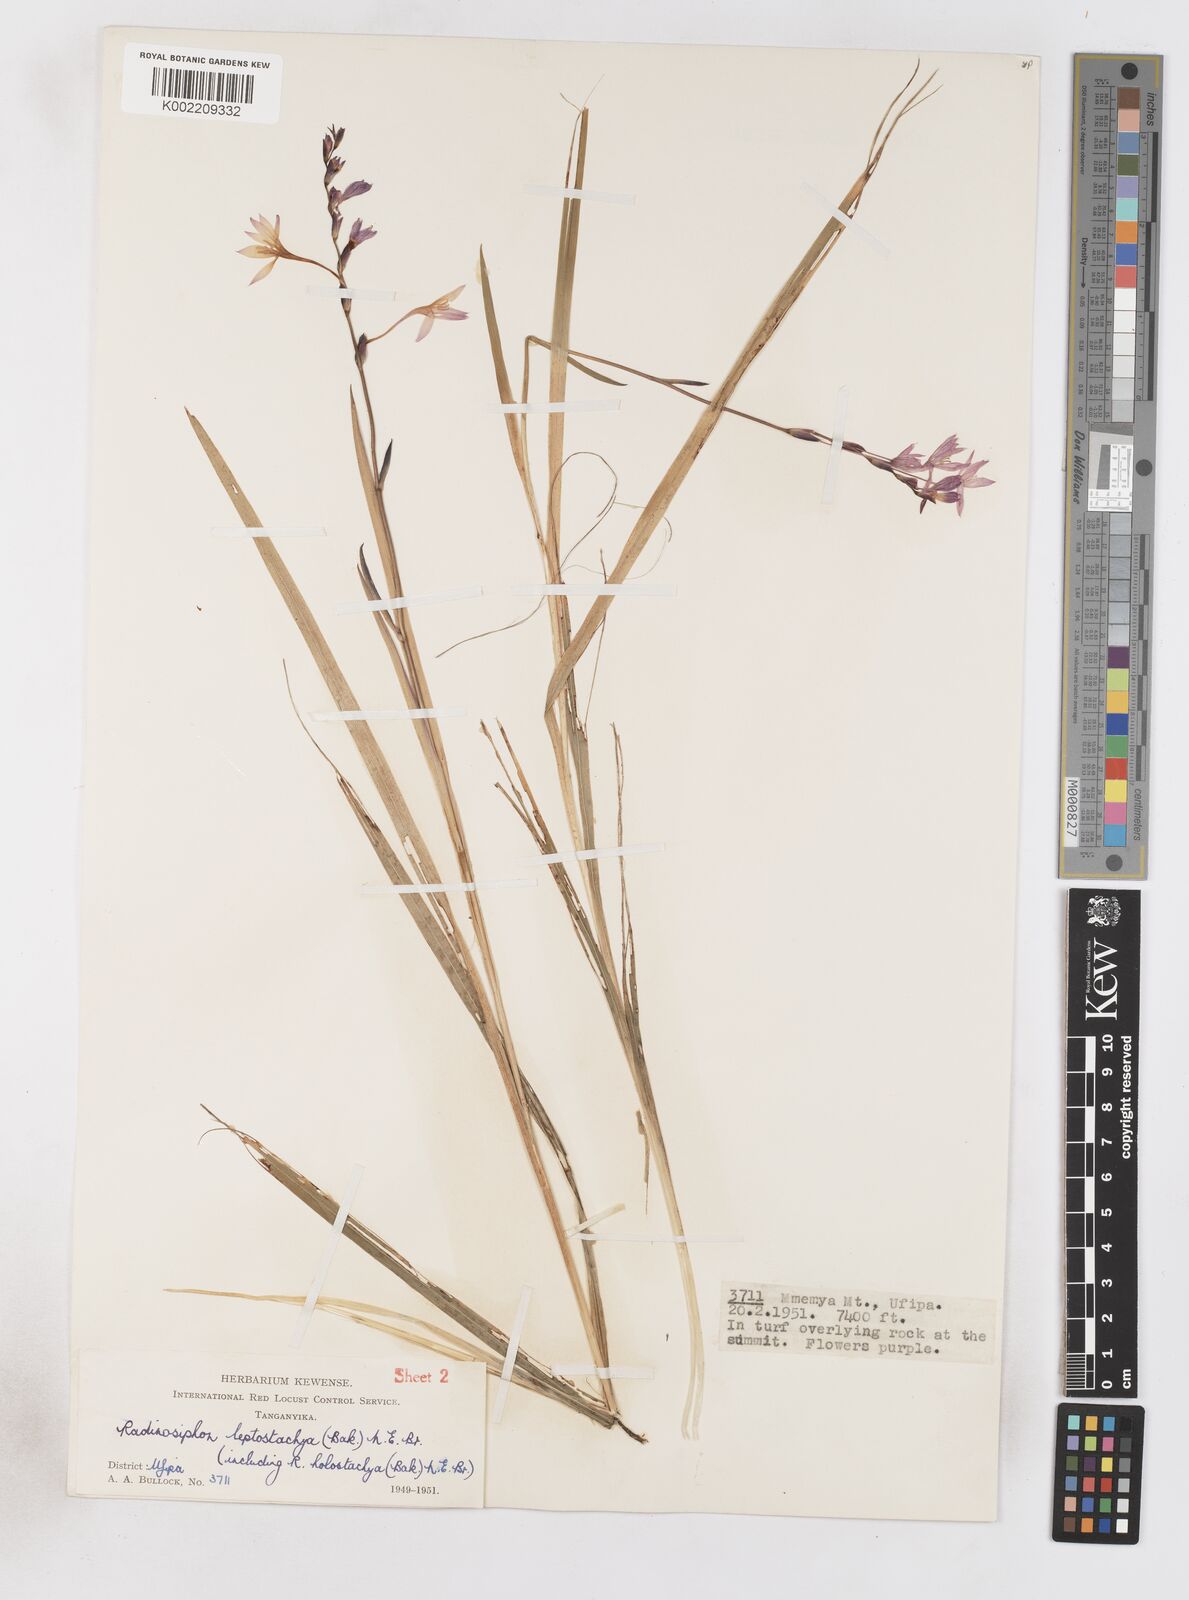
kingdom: Plantae
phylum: Tracheophyta
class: Liliopsida
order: Asparagales
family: Iridaceae
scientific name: Iridaceae
